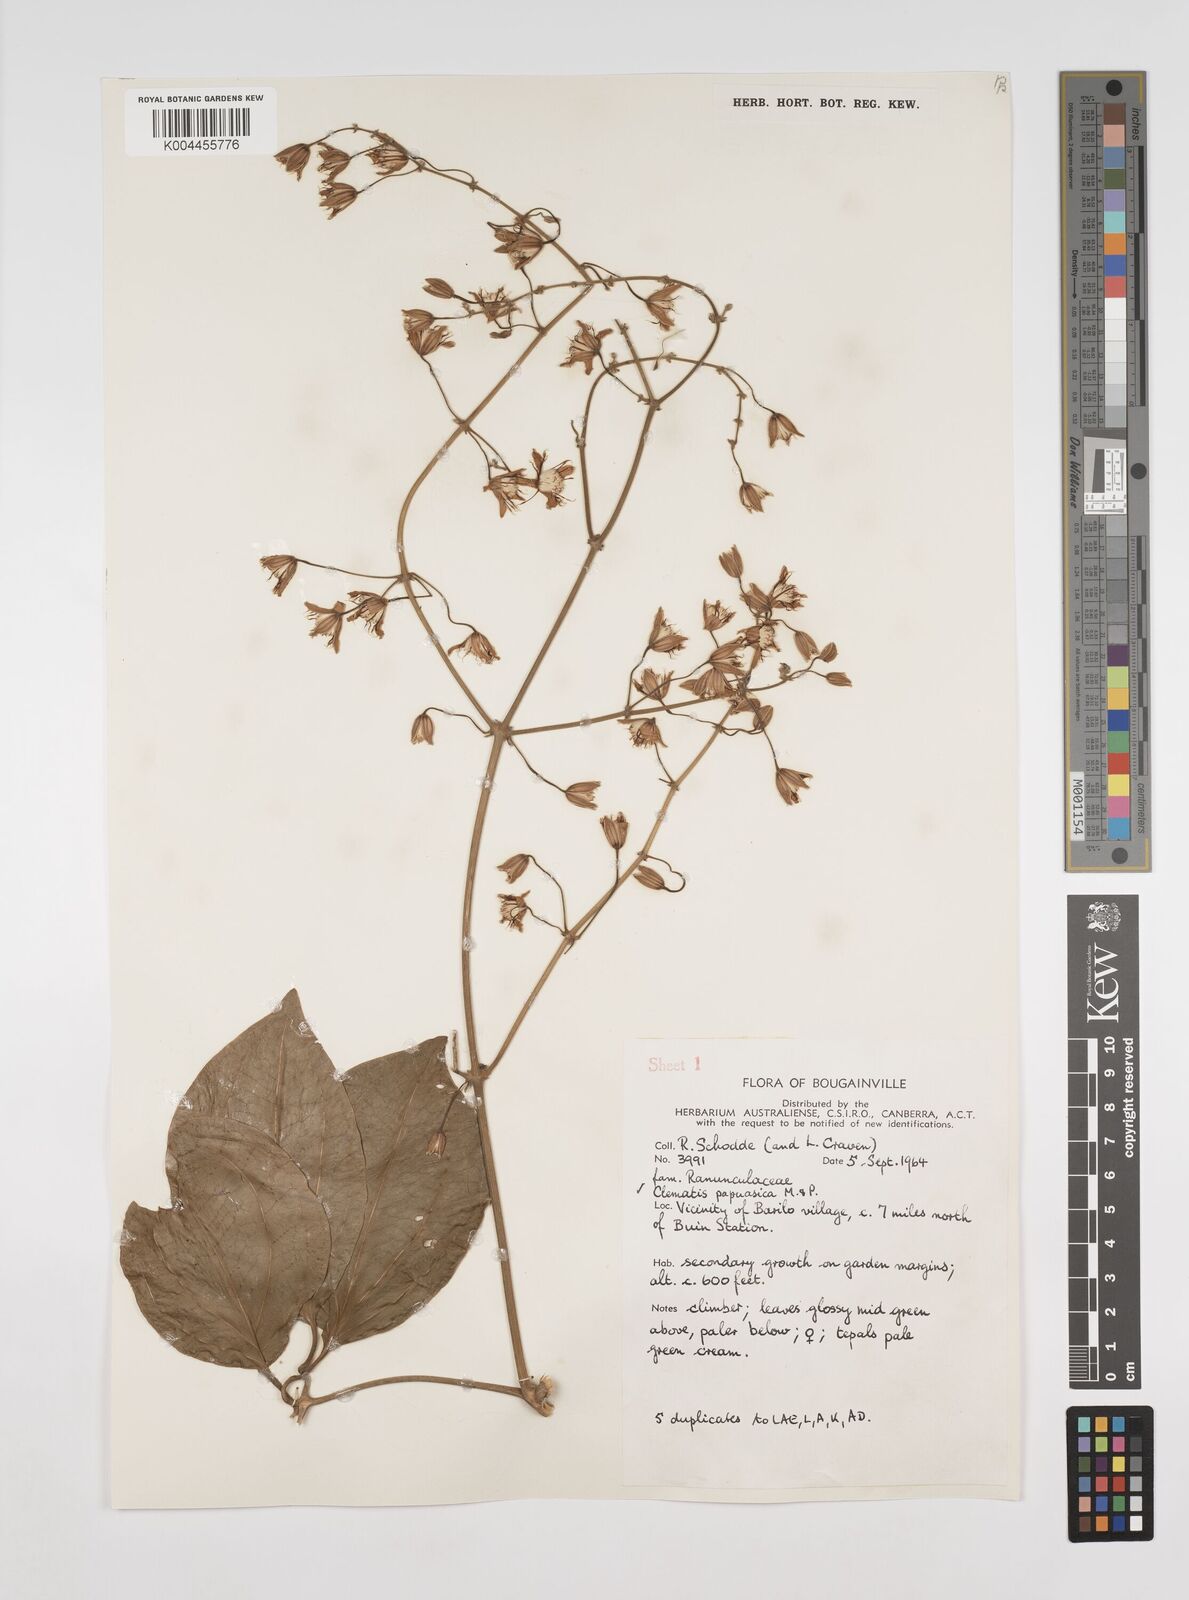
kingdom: Plantae
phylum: Tracheophyta
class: Magnoliopsida
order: Ranunculales
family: Ranunculaceae
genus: Clematis
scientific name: Clematis papuasica
